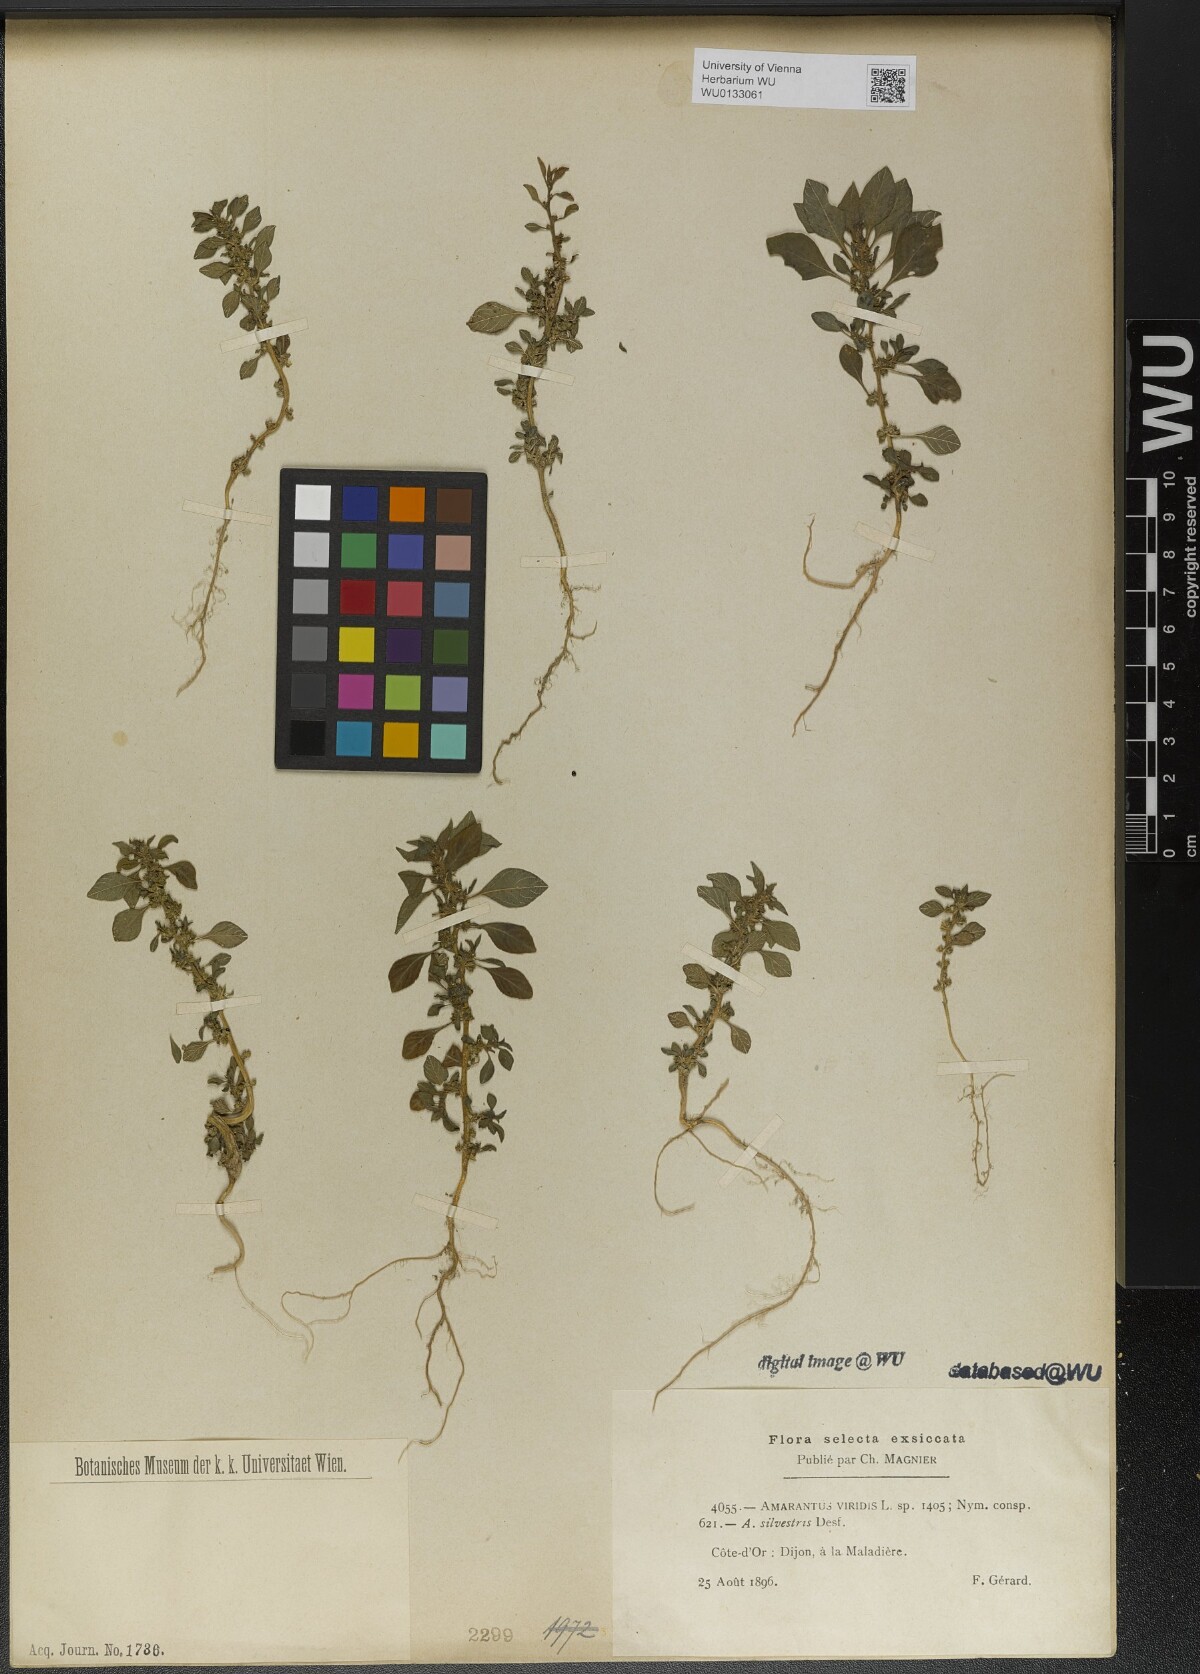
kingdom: Plantae
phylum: Tracheophyta
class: Magnoliopsida
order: Caryophyllales
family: Amaranthaceae
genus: Amaranthus
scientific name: Amaranthus viridis
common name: Slender amaranth
